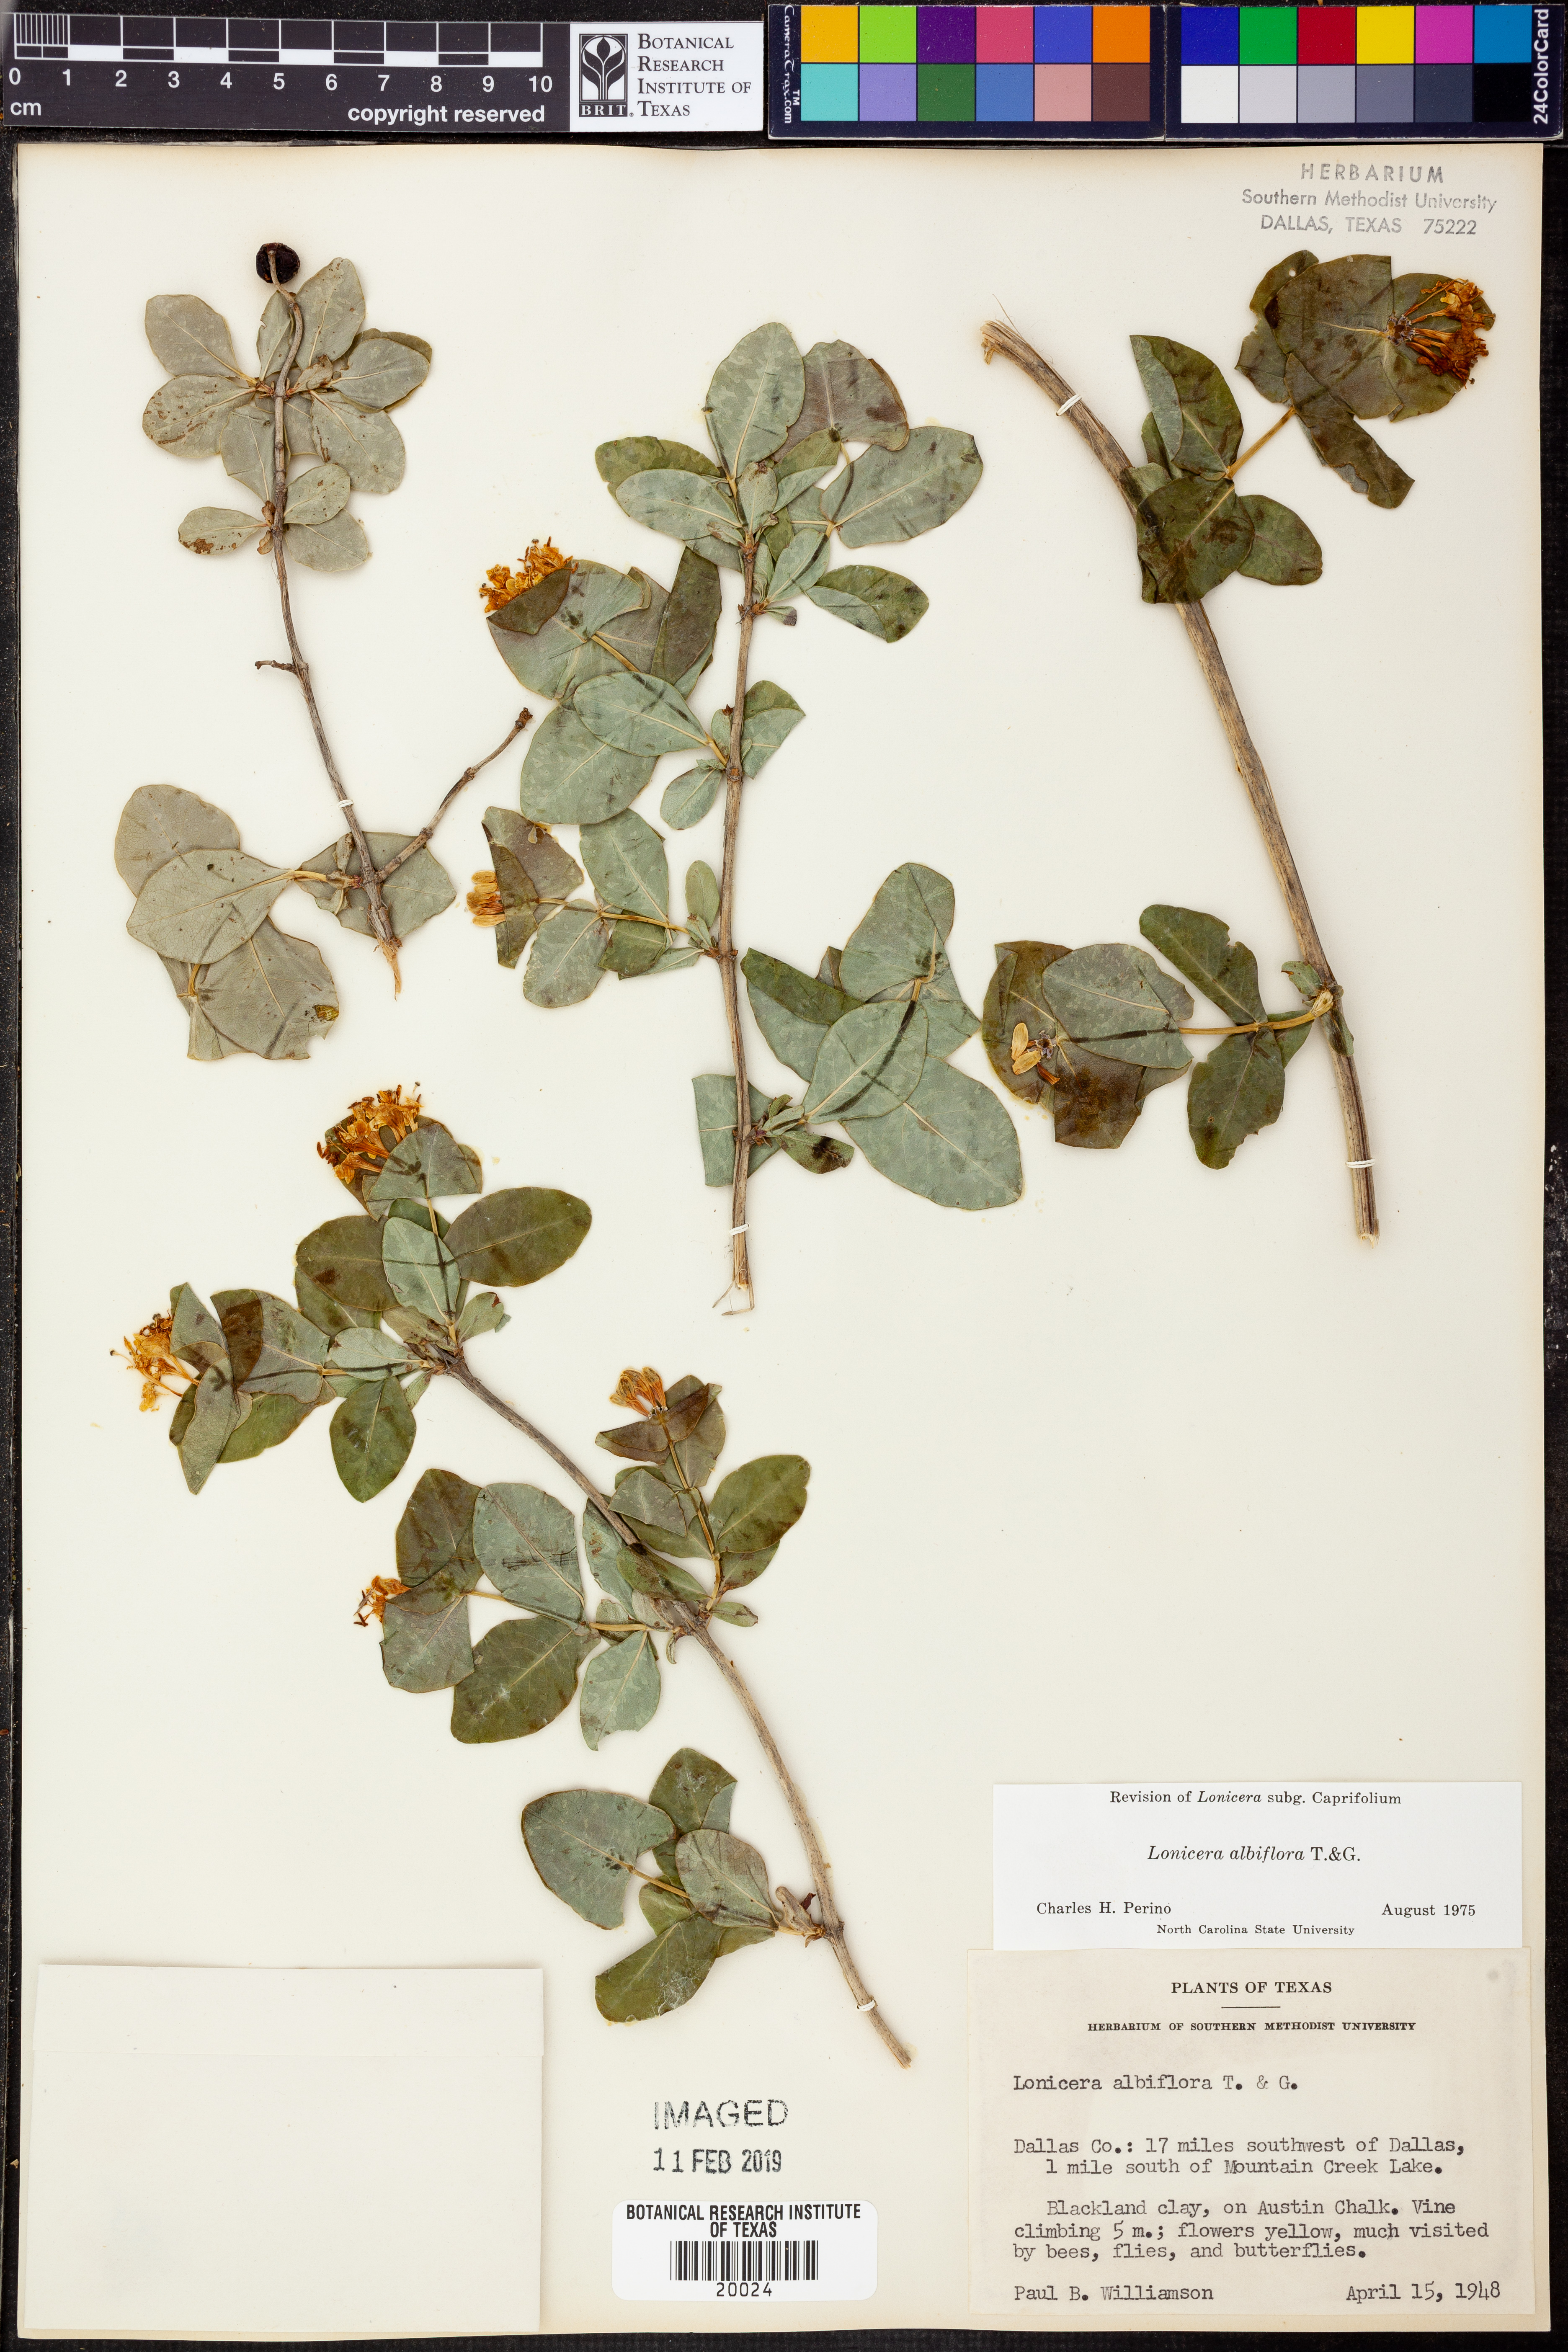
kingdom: Plantae
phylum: Tracheophyta
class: Magnoliopsida
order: Dipsacales
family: Caprifoliaceae
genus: Lonicera
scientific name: Lonicera albiflora
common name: White honeysuckle
